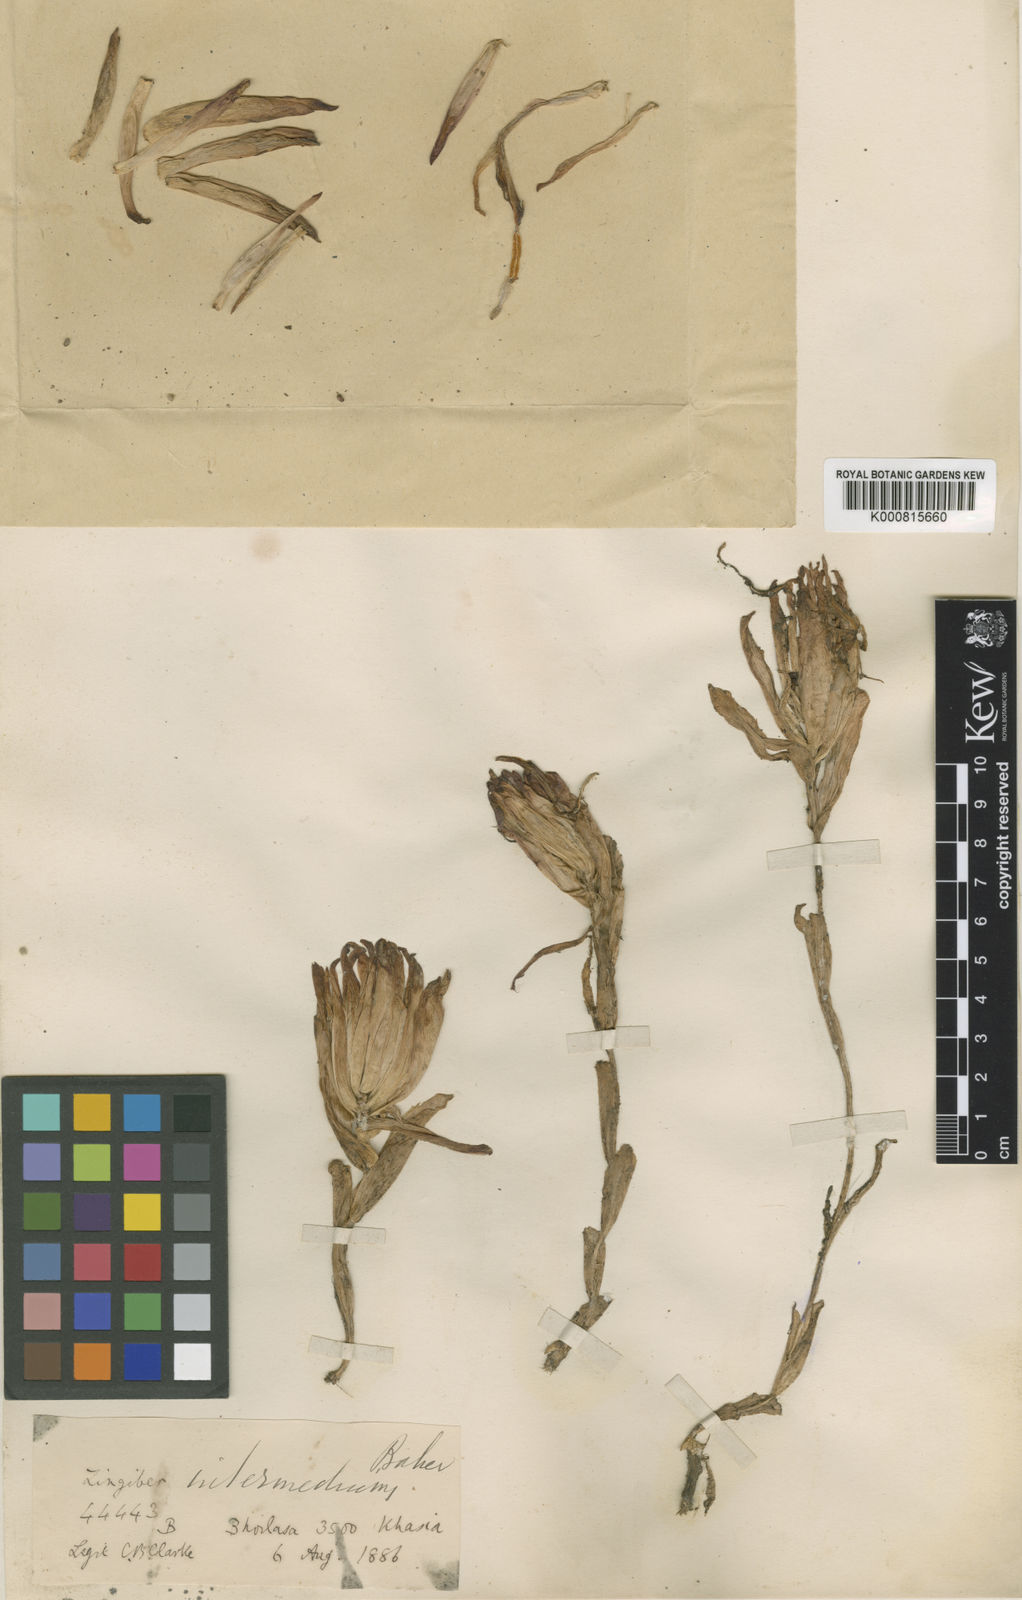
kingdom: Plantae
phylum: Tracheophyta
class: Liliopsida
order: Zingiberales
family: Zingiberaceae
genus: Zingiber
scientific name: Zingiber intermedium
